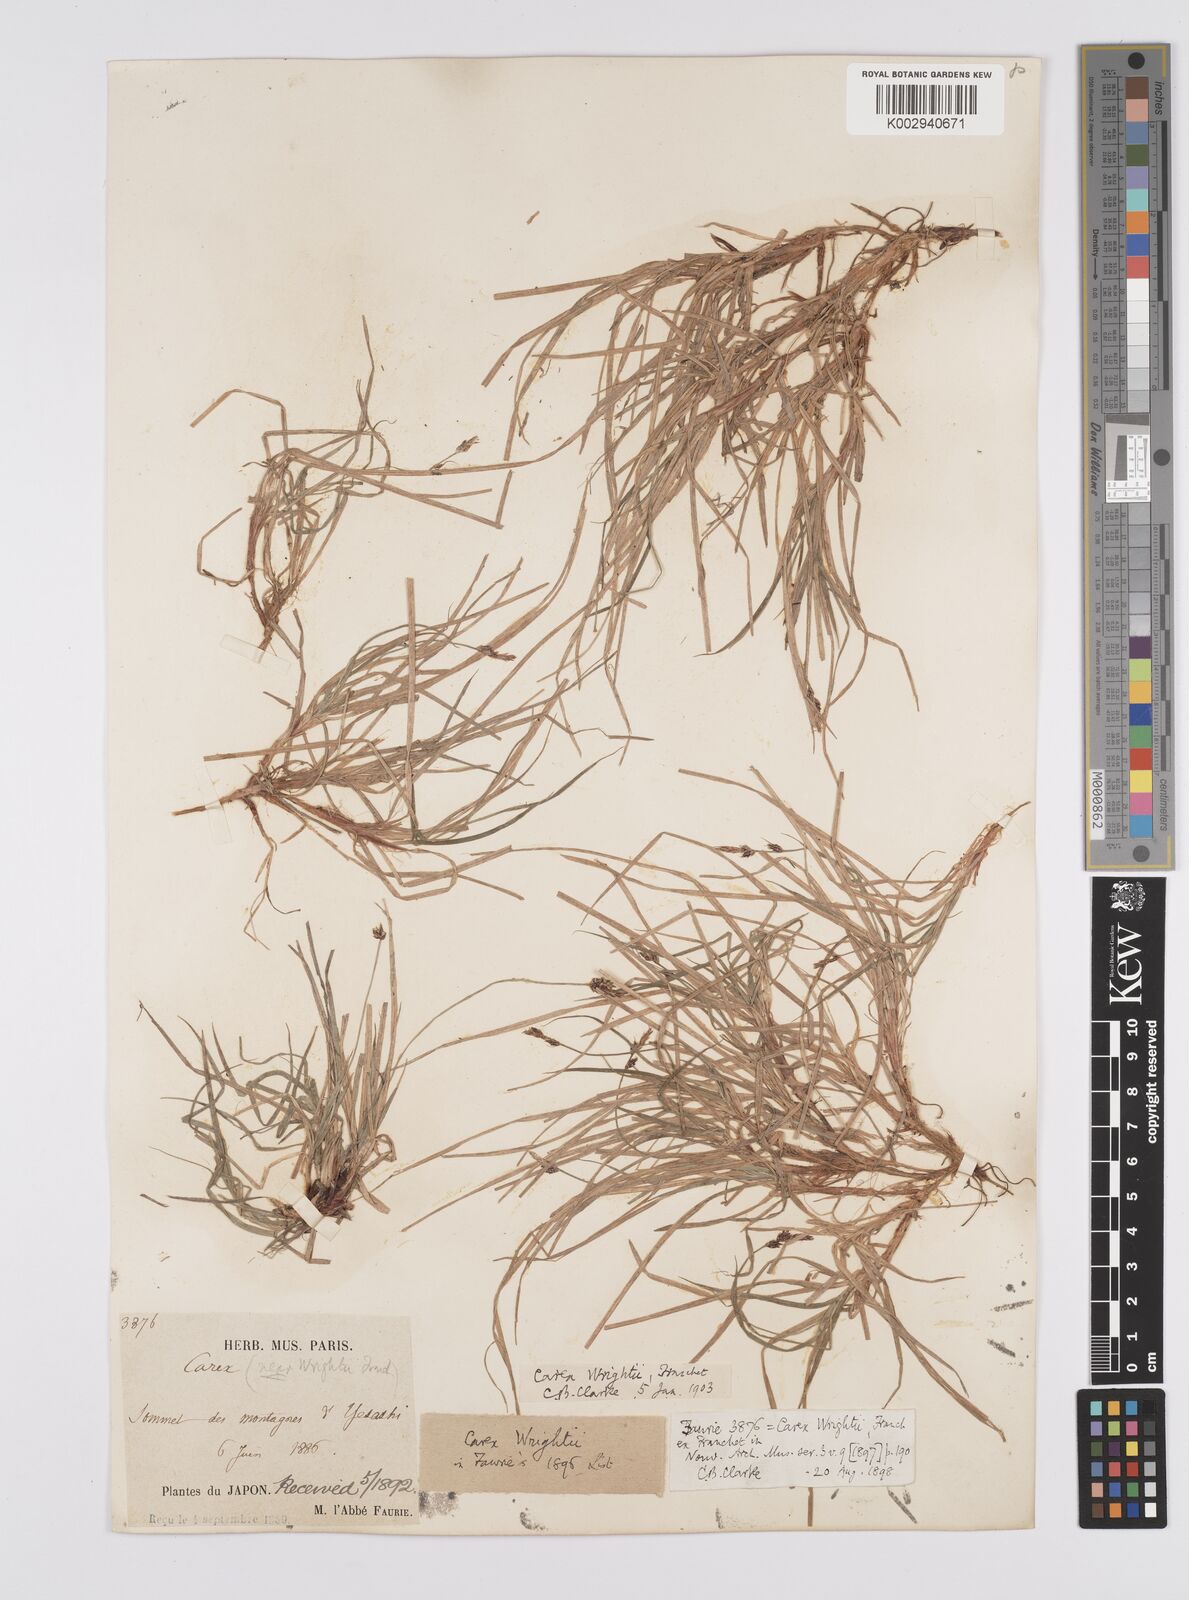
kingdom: Plantae
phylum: Tracheophyta
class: Liliopsida
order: Poales
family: Cyperaceae
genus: Carex
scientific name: Carex oxyandra
